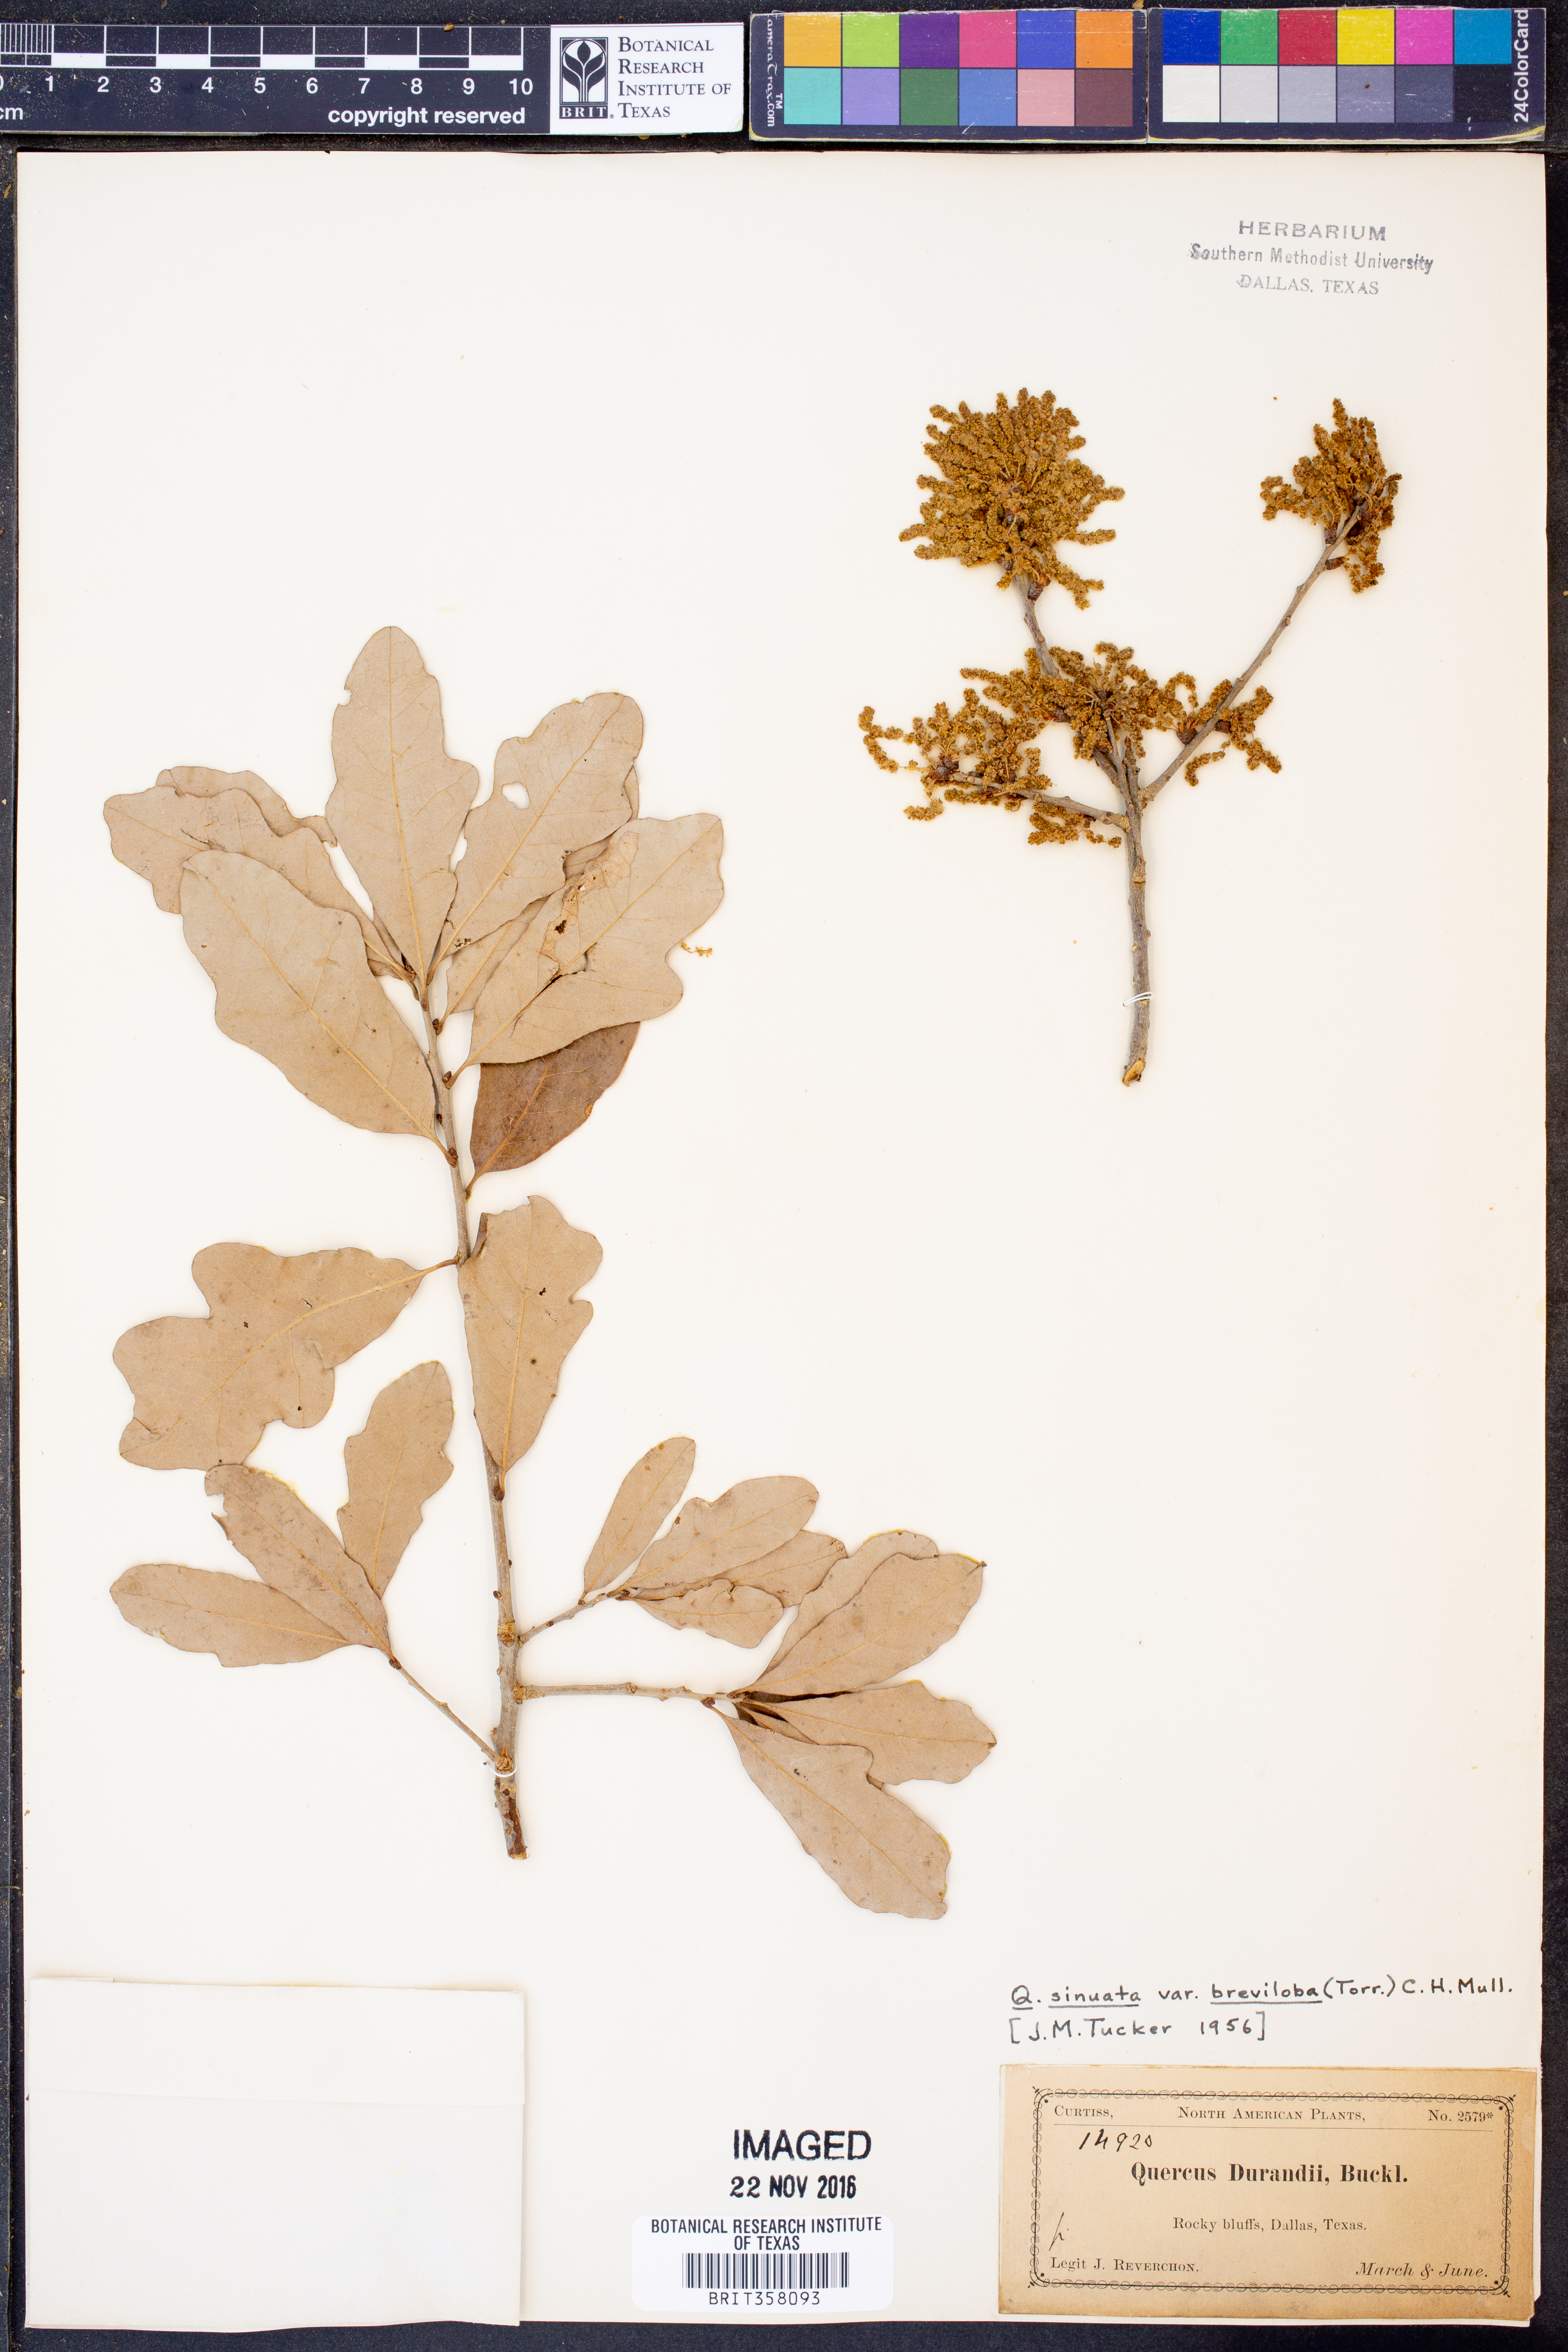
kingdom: Plantae
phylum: Tracheophyta
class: Magnoliopsida
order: Fagales
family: Fagaceae
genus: Quercus
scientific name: Quercus sinuata
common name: Durand oak
